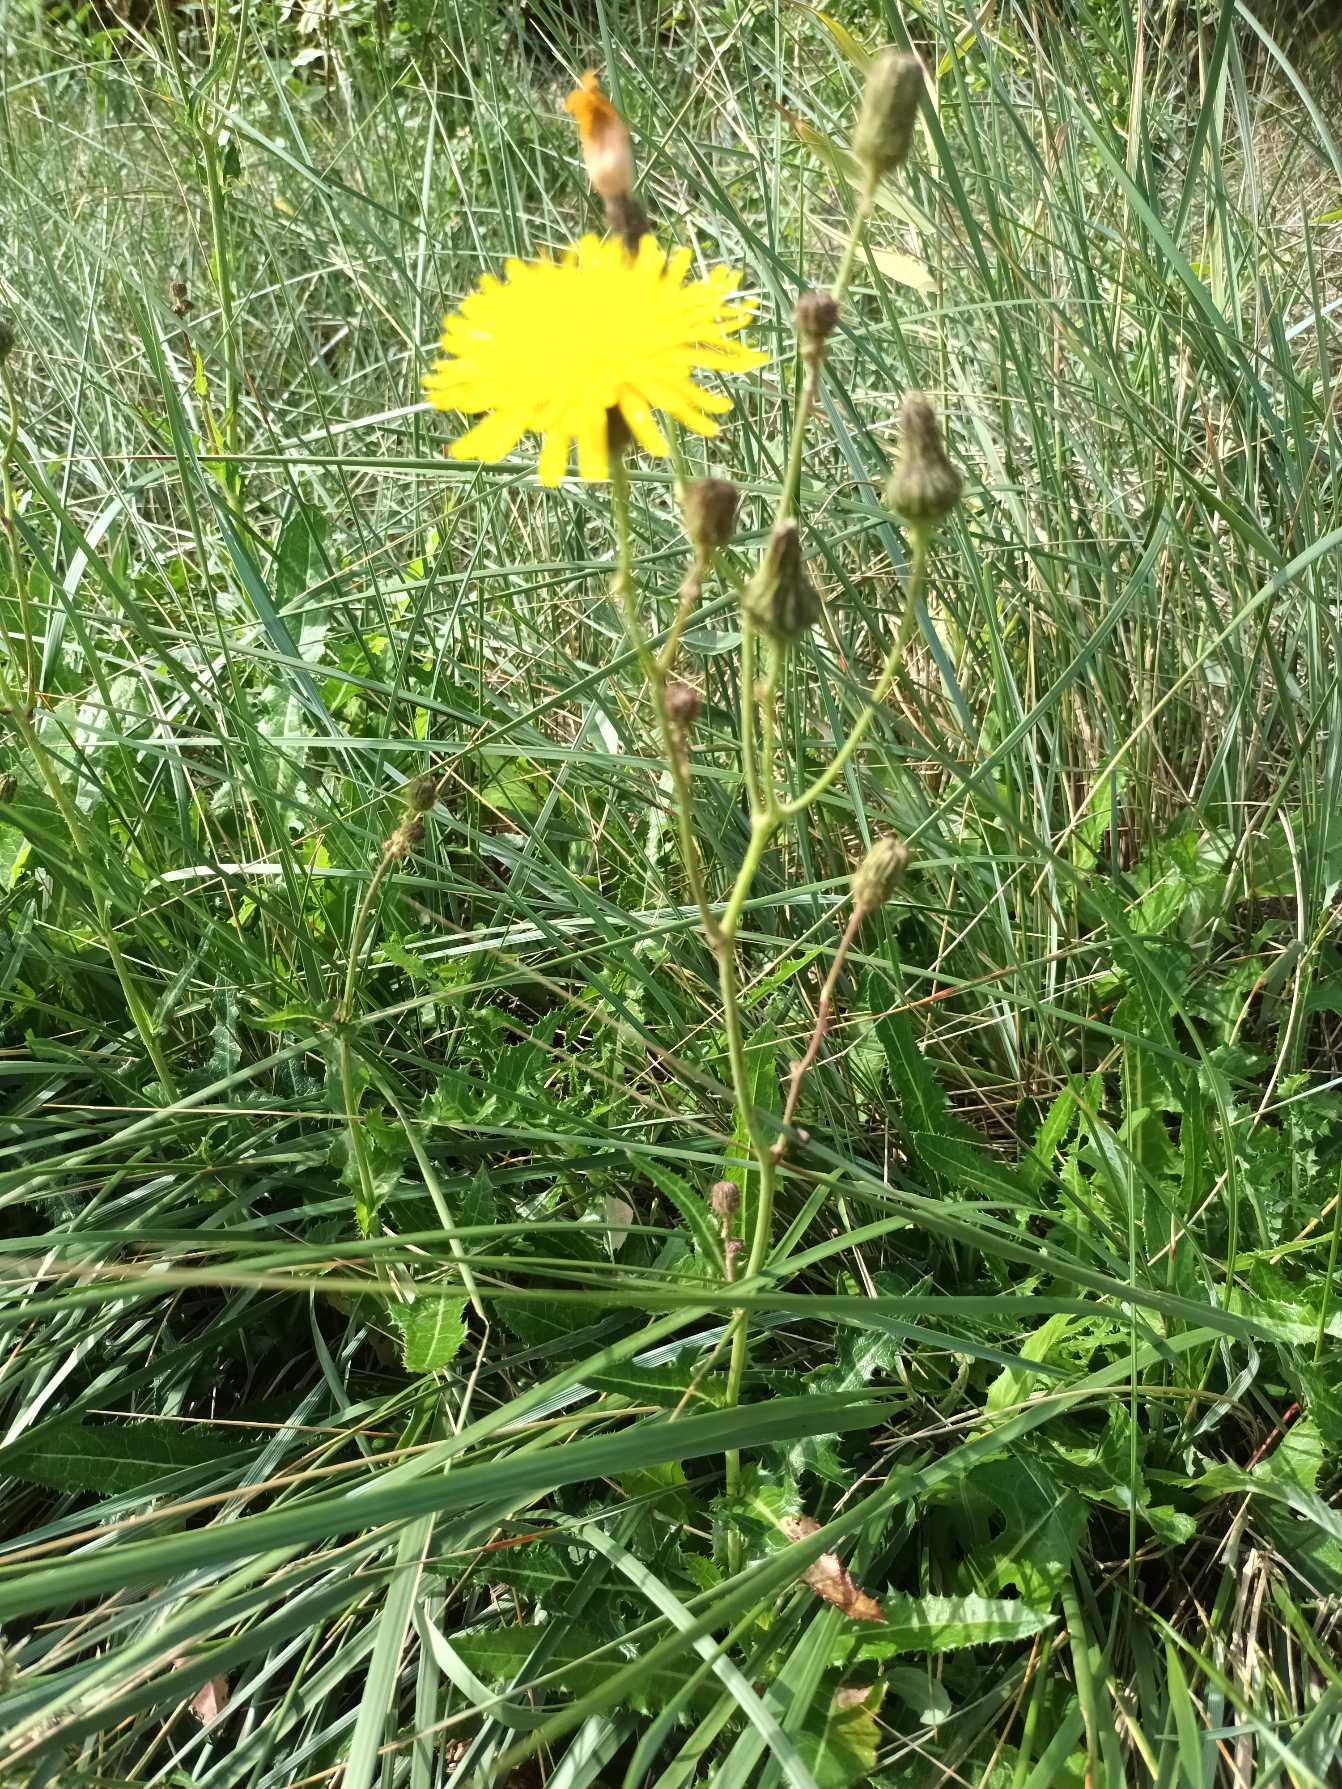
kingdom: Plantae
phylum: Tracheophyta
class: Magnoliopsida
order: Asterales
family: Asteraceae
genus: Sonchus
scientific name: Sonchus arvensis
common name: Ager-svinemælk
